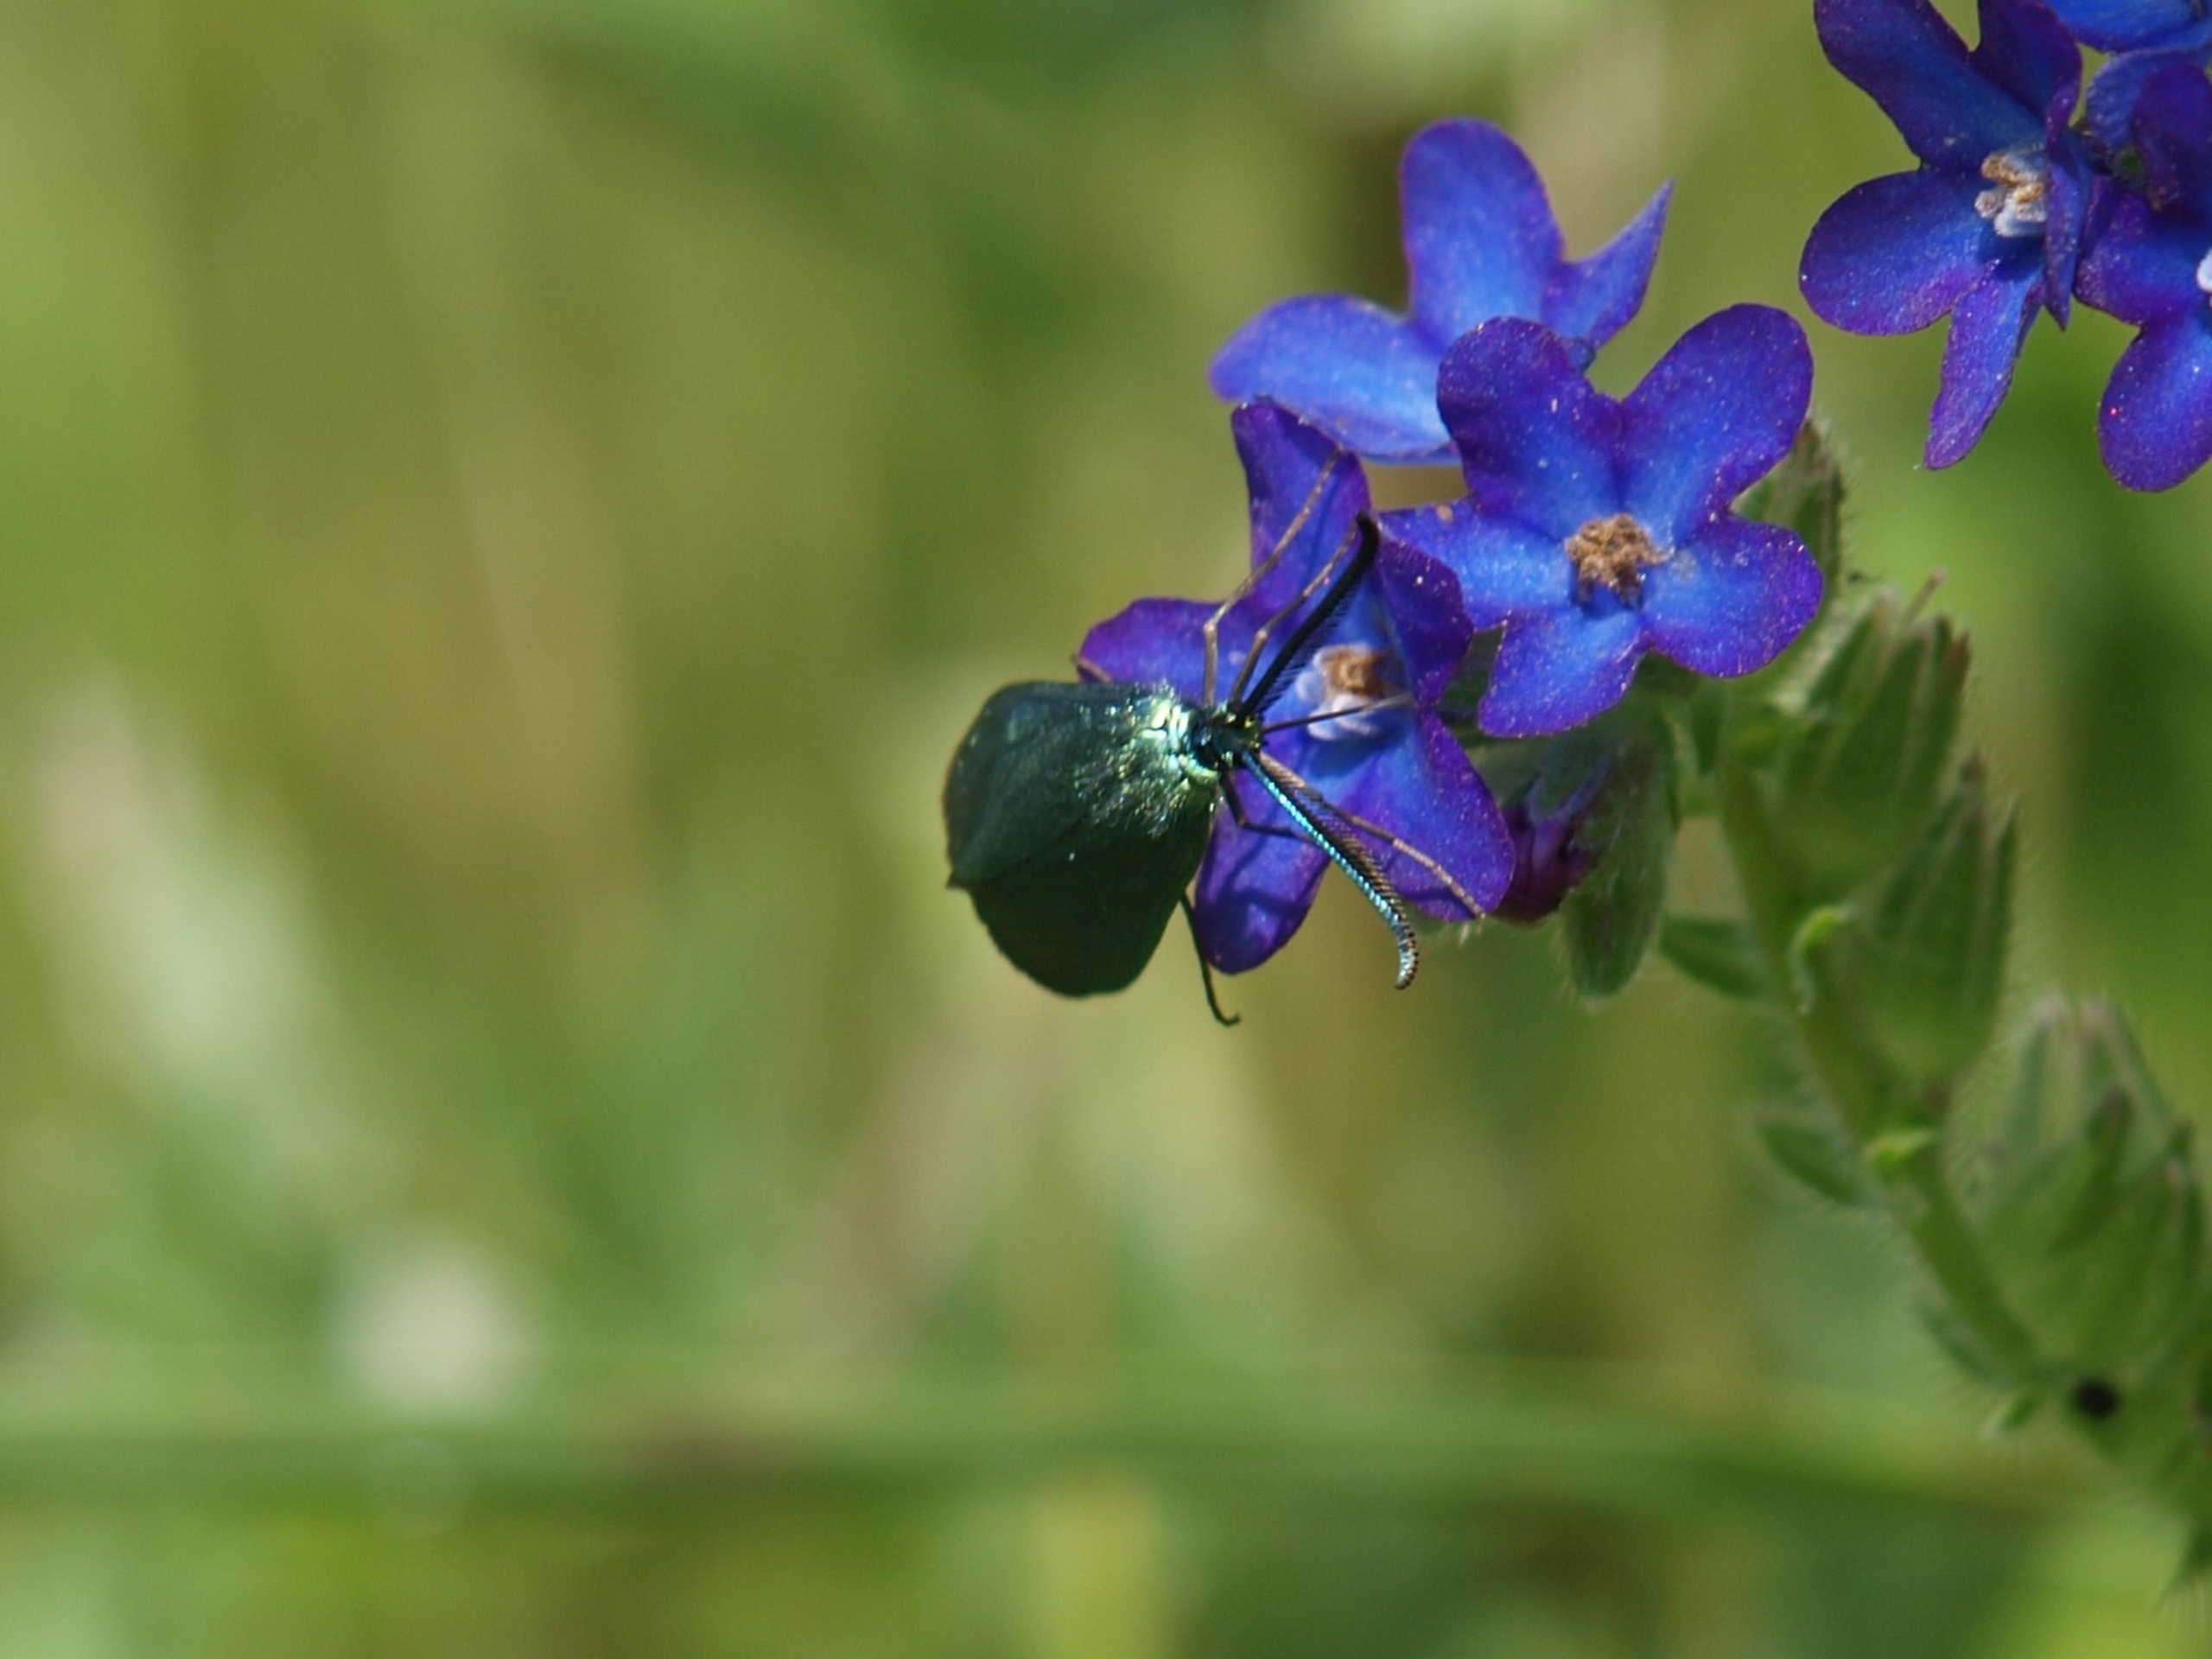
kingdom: Animalia
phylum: Arthropoda
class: Insecta
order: Lepidoptera
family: Zygaenidae
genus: Adscita
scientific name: Adscita statices
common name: Metalvinge
